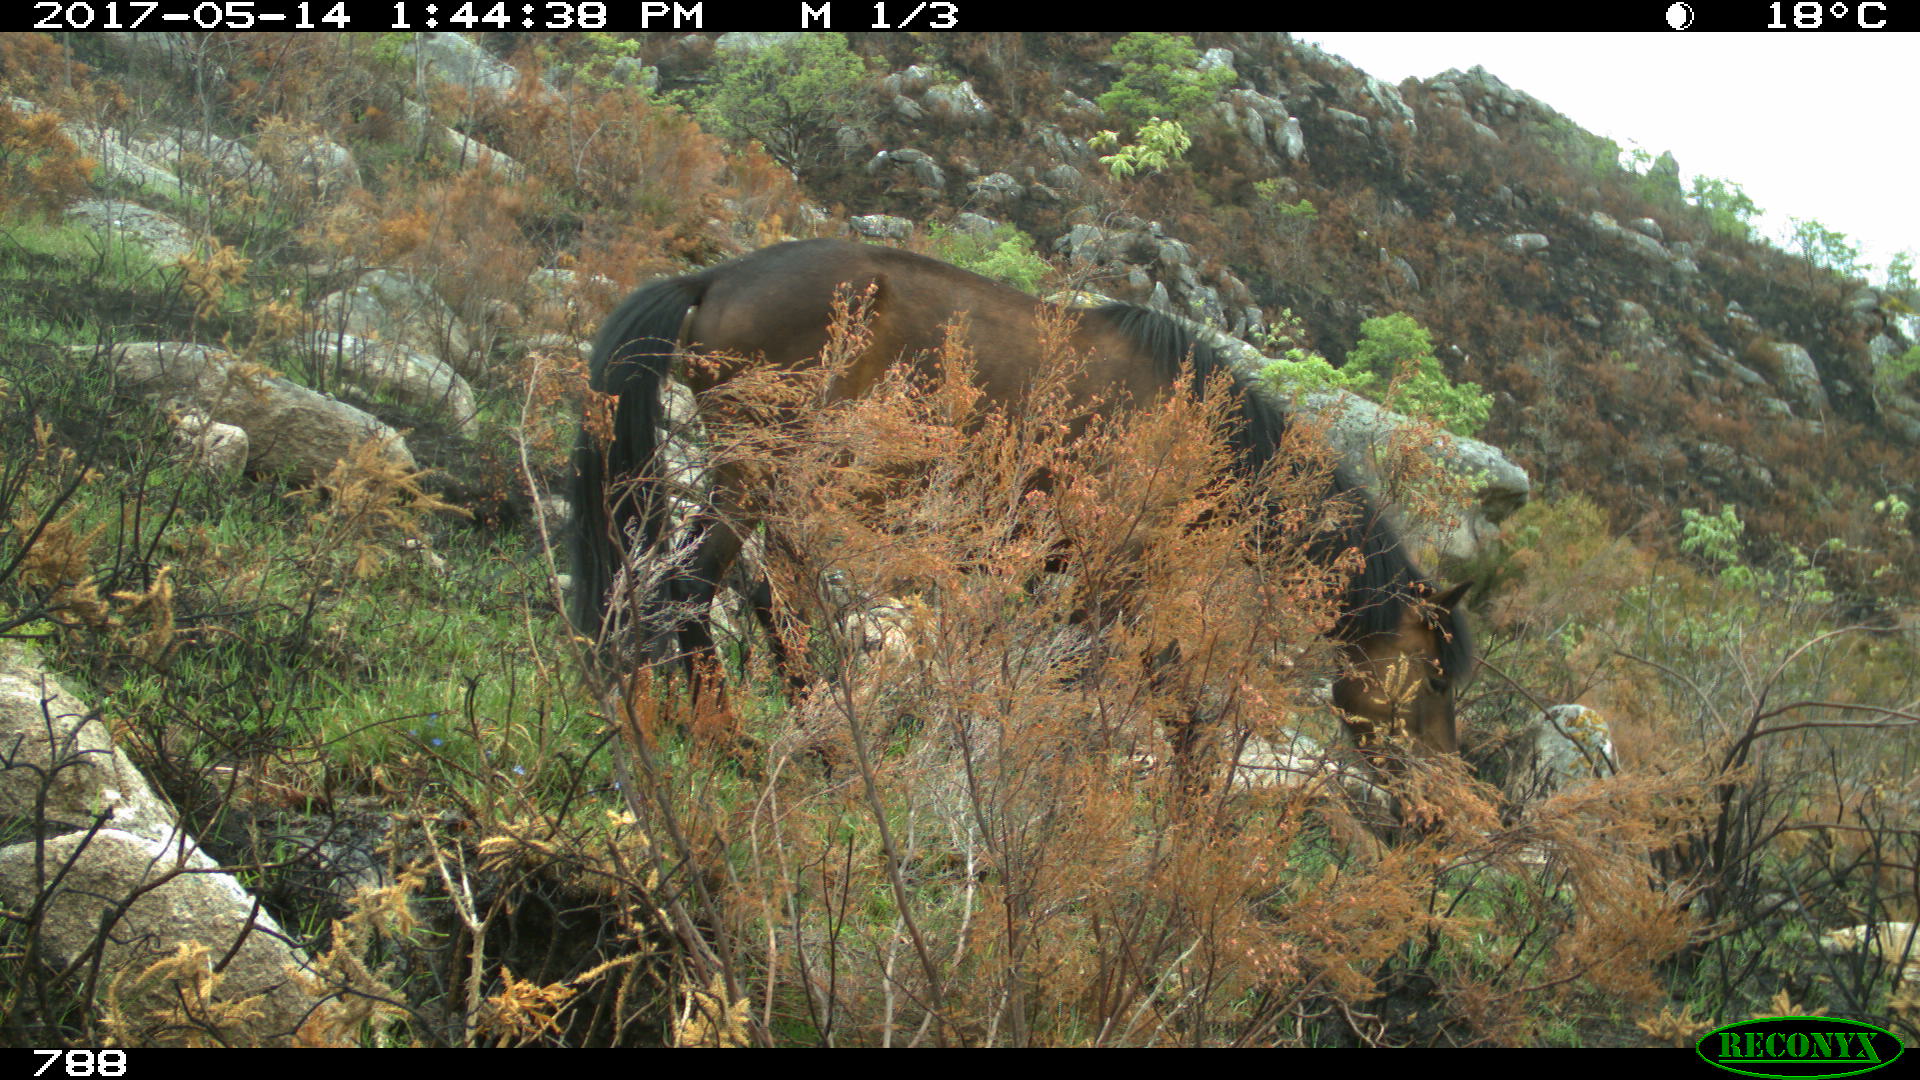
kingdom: Animalia
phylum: Chordata
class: Mammalia
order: Perissodactyla
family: Equidae
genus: Equus
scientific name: Equus caballus
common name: Horse
